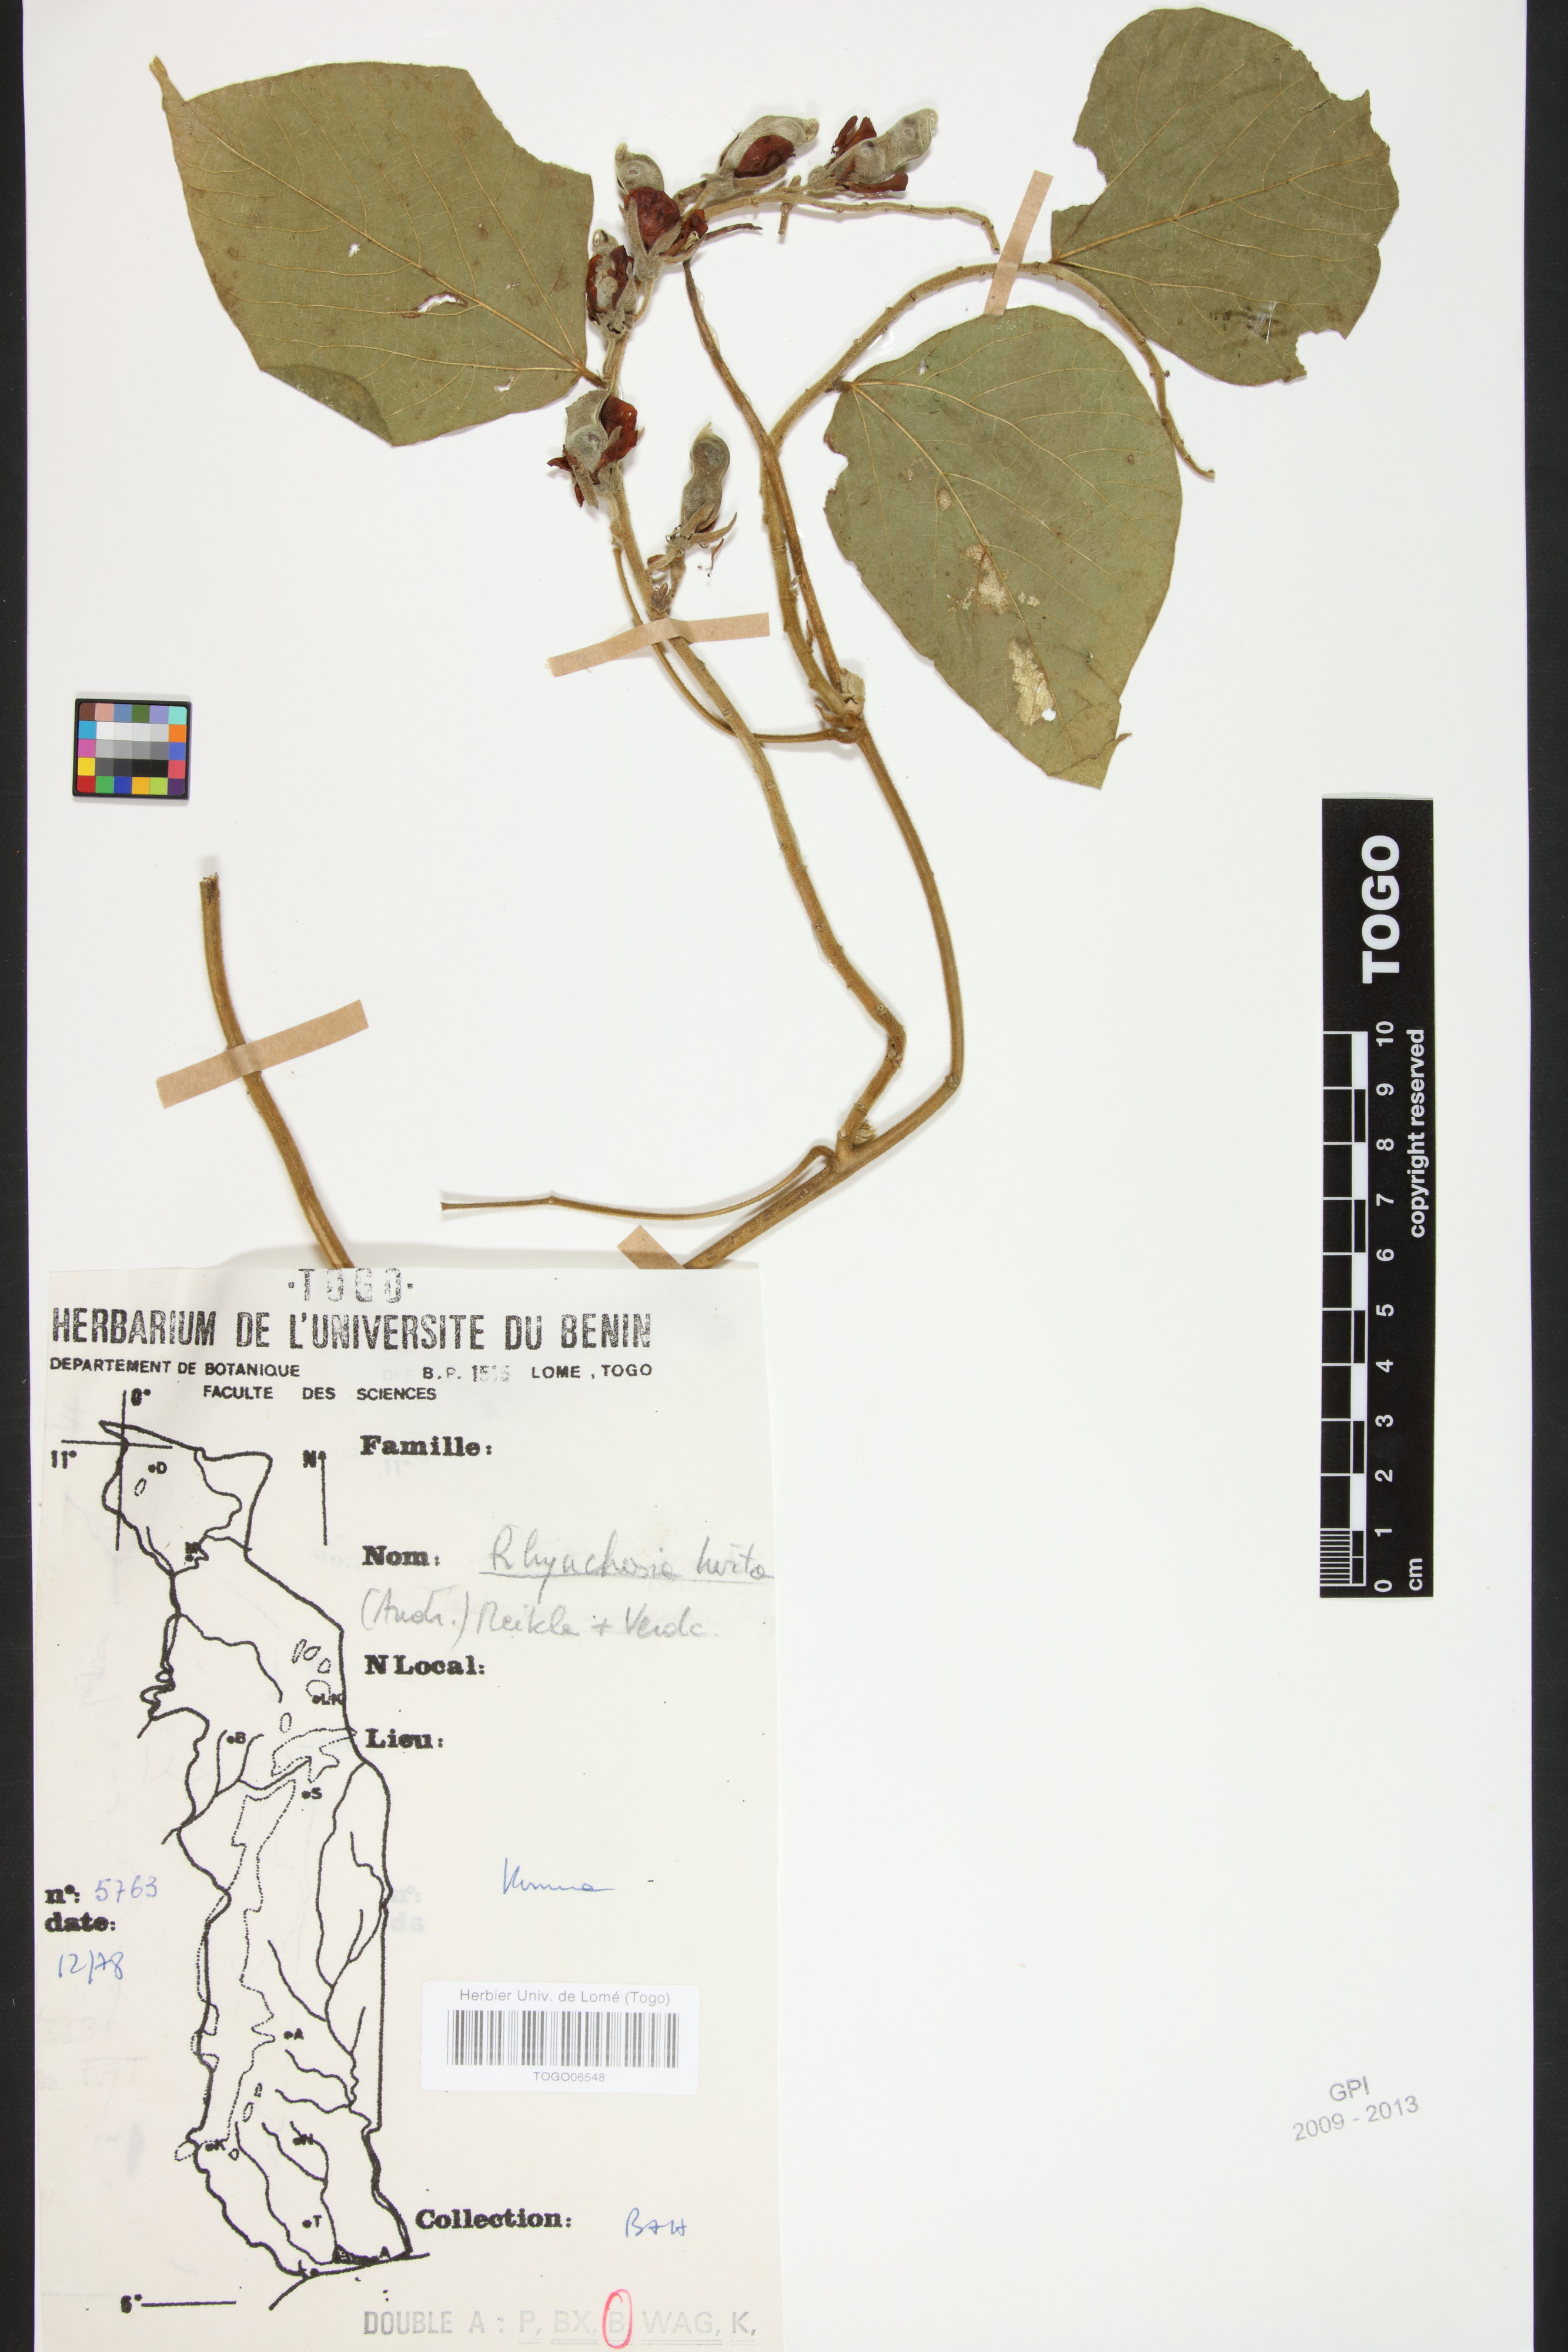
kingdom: Plantae
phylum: Tracheophyta
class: Magnoliopsida
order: Fabales
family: Fabaceae
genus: Rhynchosia
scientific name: Rhynchosia hirta
